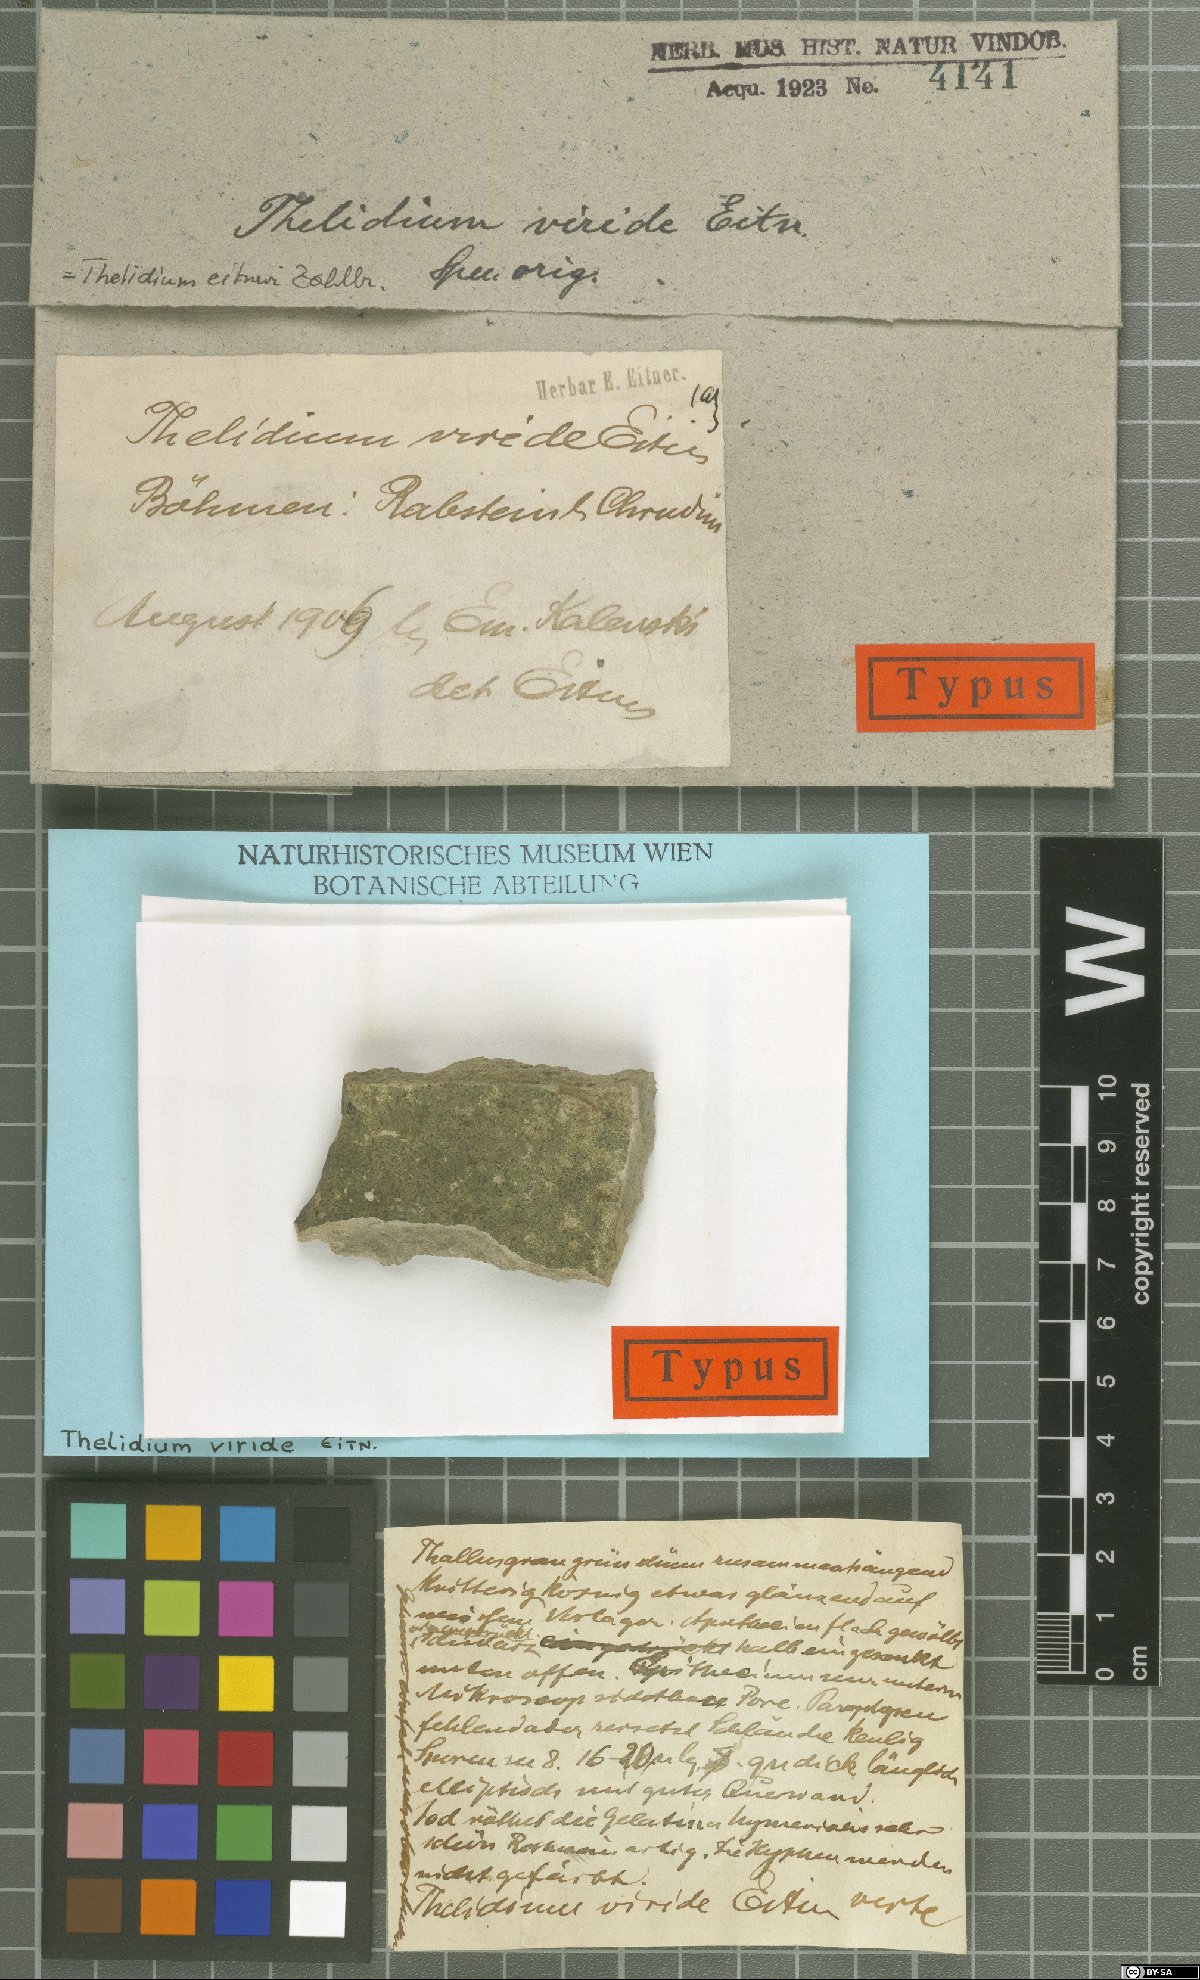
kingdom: Fungi
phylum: Ascomycota
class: Eurotiomycetes
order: Verrucariales
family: Verrucariaceae
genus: Thelidium
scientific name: Thelidium pyrenophorum
